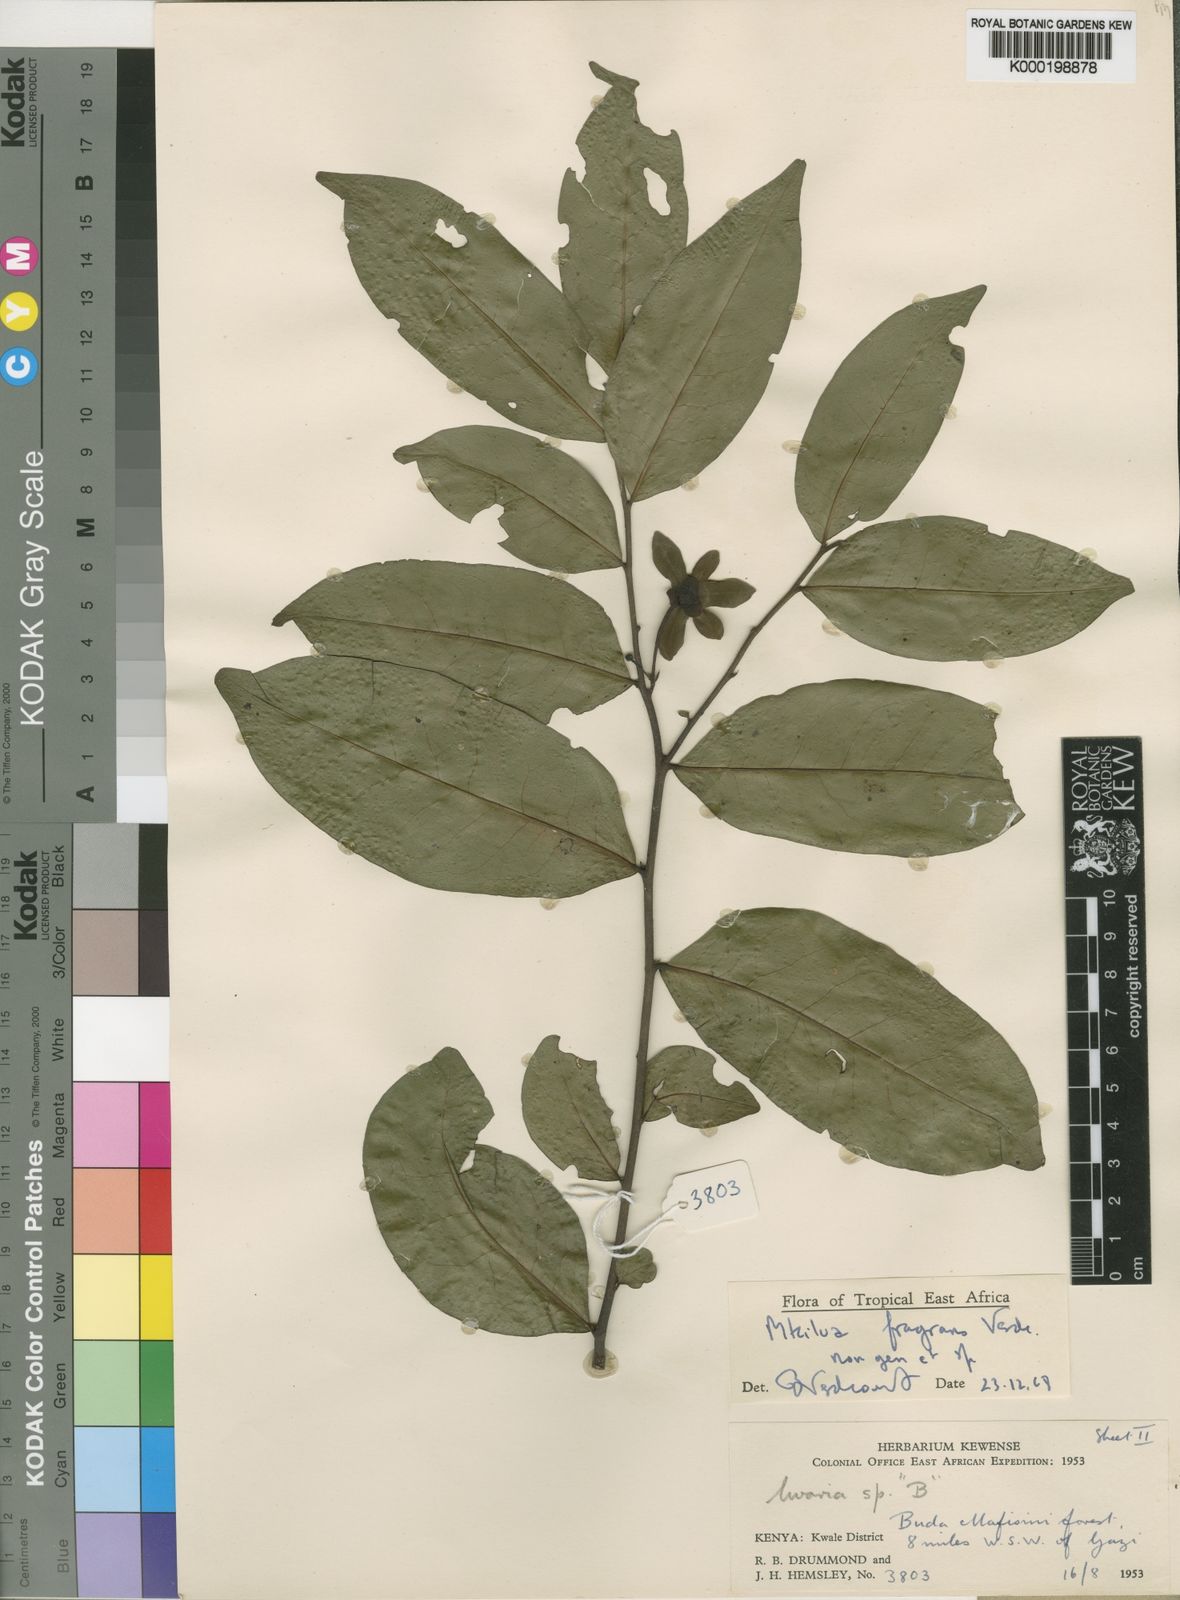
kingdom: Plantae
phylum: Tracheophyta
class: Magnoliopsida
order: Magnoliales
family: Annonaceae
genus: Mkilua
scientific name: Mkilua fragrans
